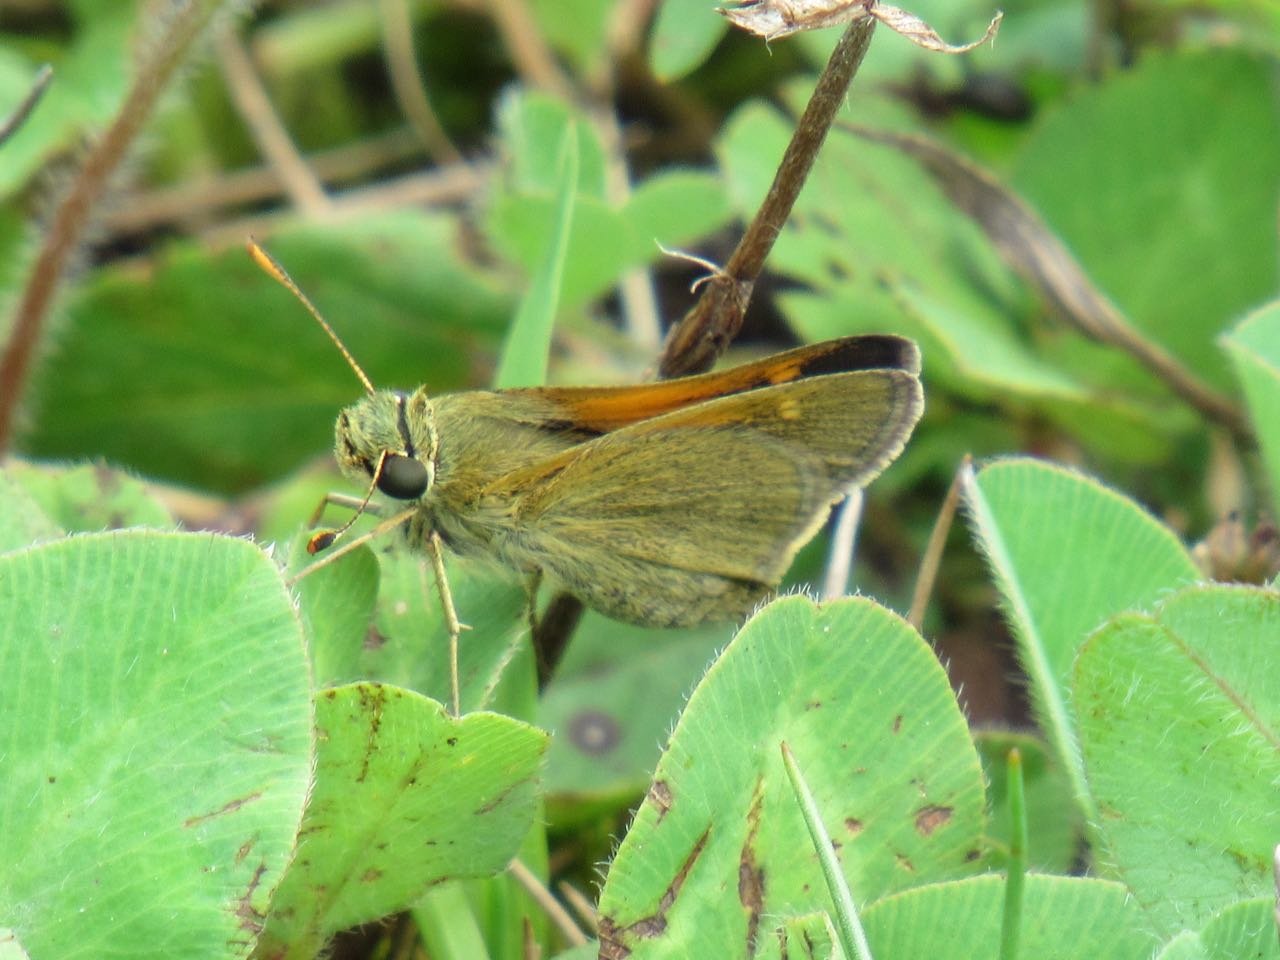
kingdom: Animalia
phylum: Arthropoda
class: Insecta
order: Lepidoptera
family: Hesperiidae
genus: Polites
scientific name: Polites themistocles
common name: Tawny-edged Skipper
